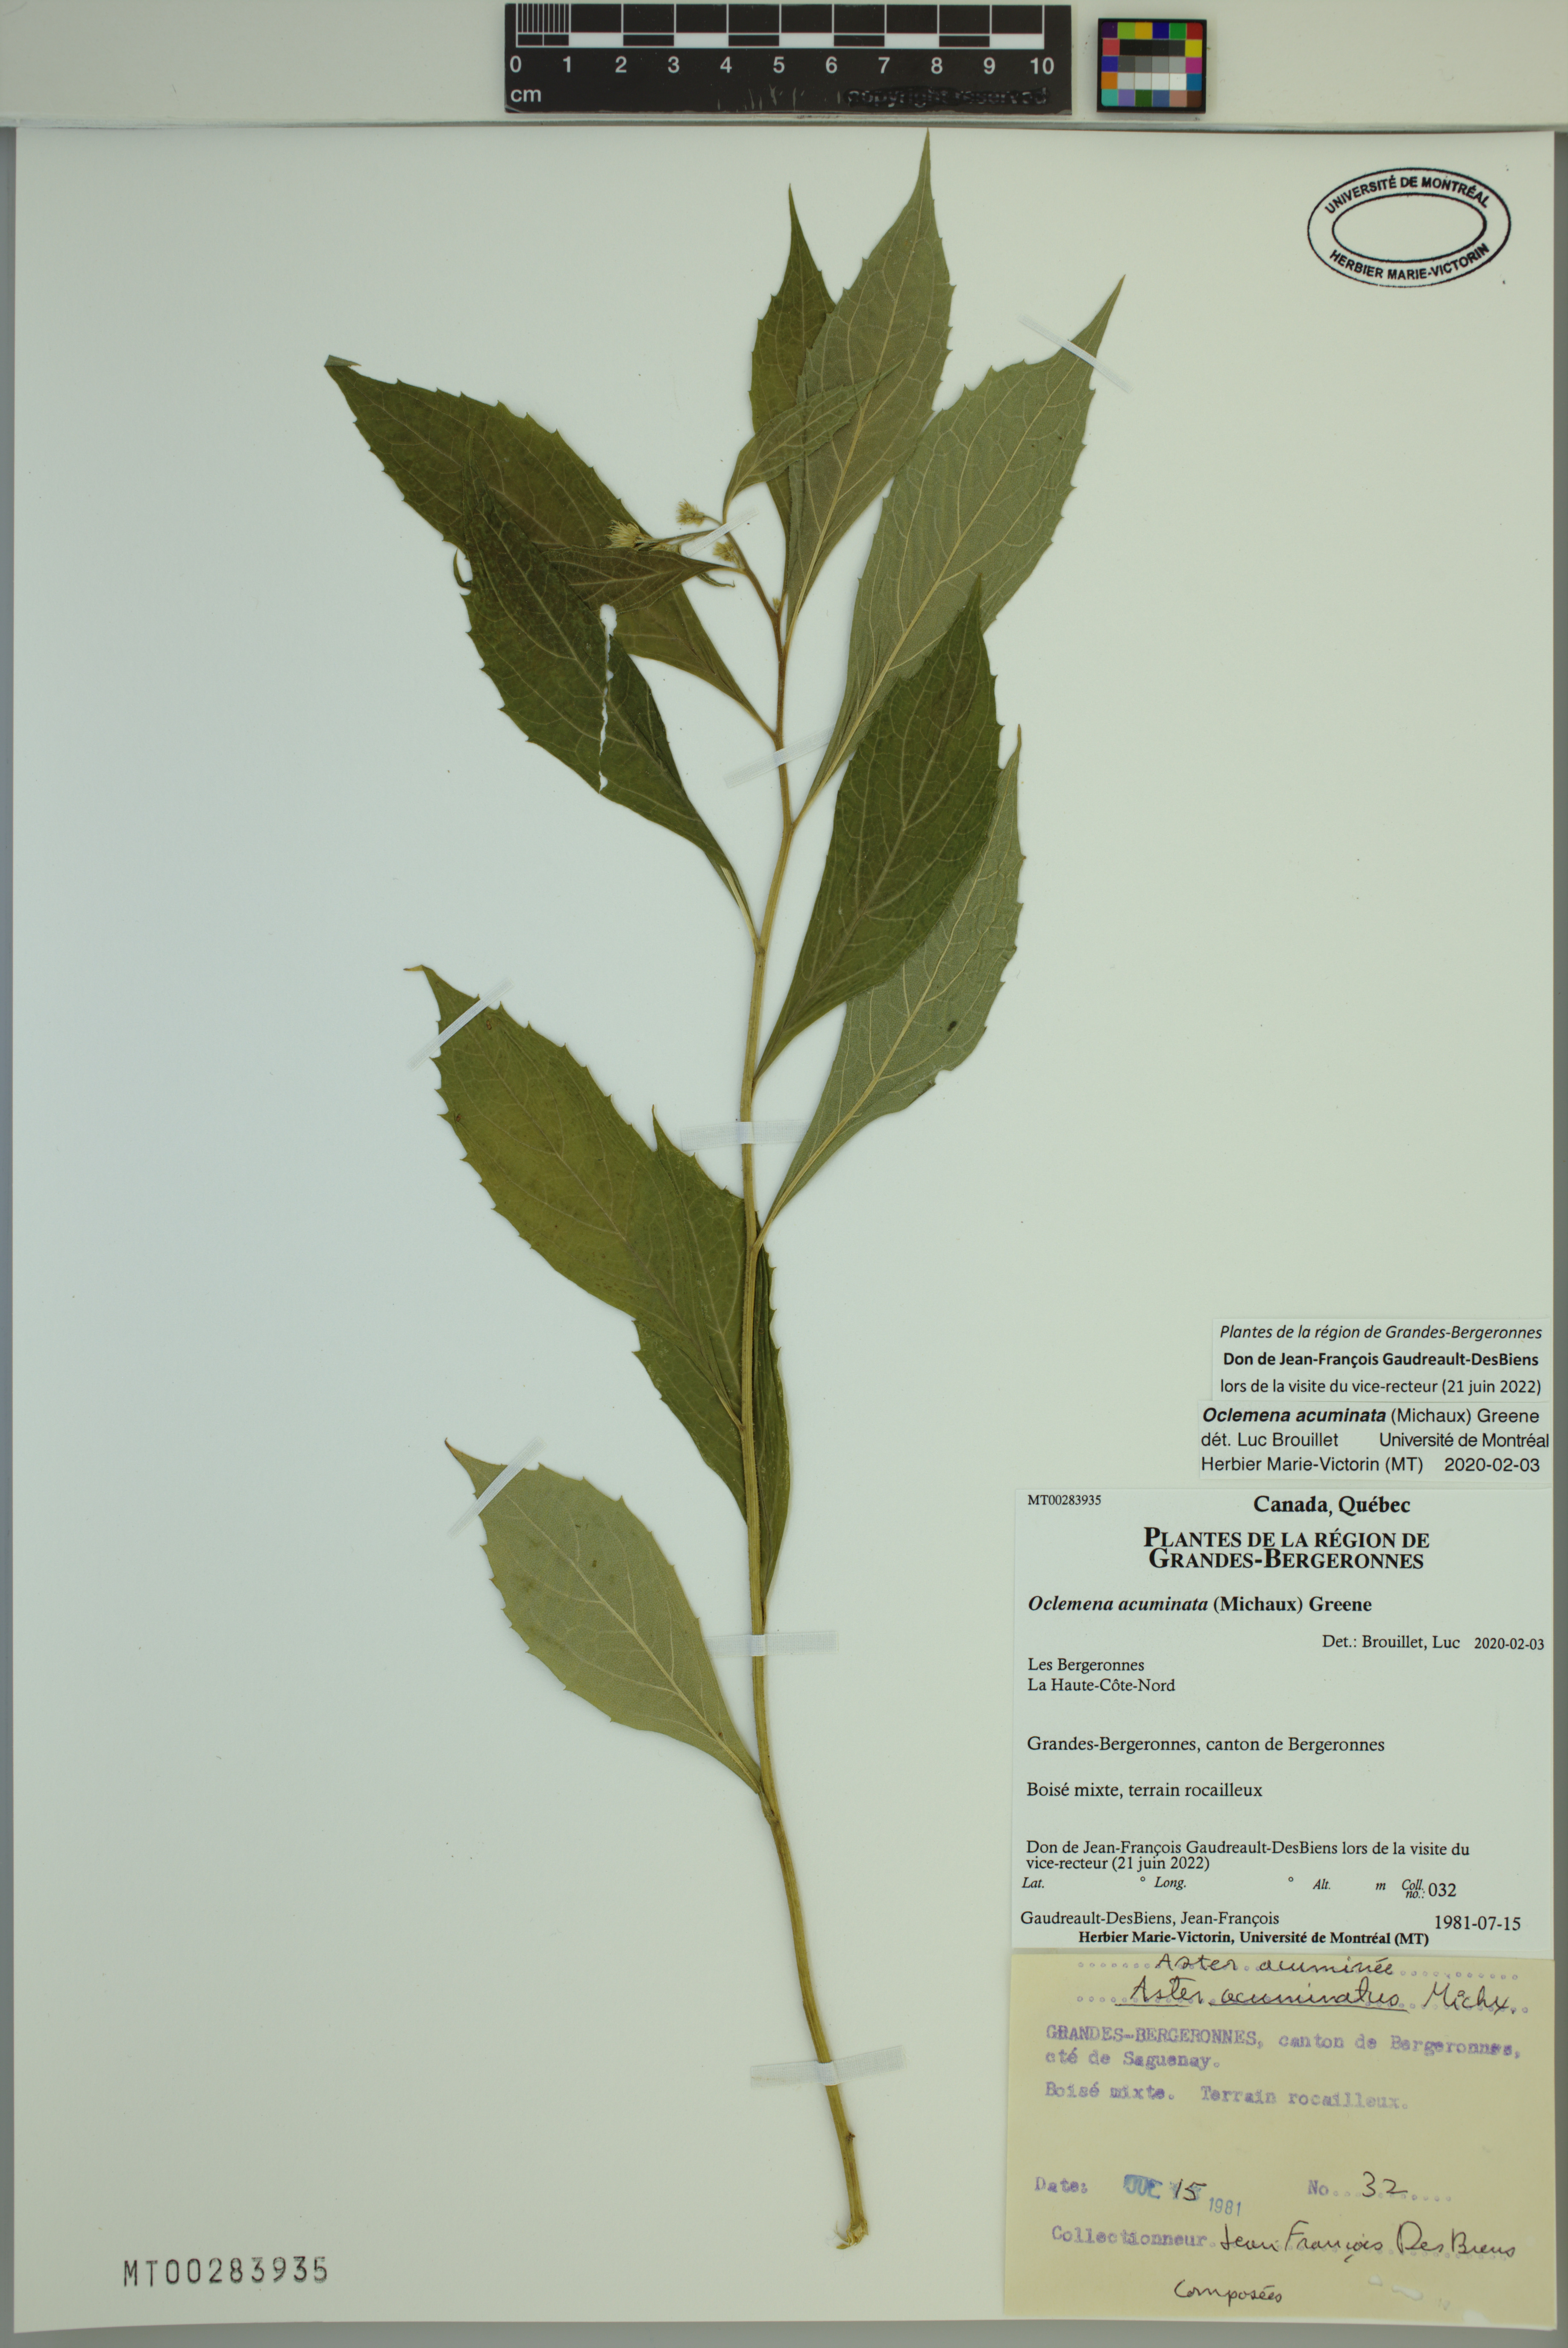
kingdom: Plantae
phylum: Tracheophyta
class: Magnoliopsida
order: Asterales
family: Asteraceae
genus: Oclemena
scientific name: Oclemena acuminata
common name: Mountain aster
